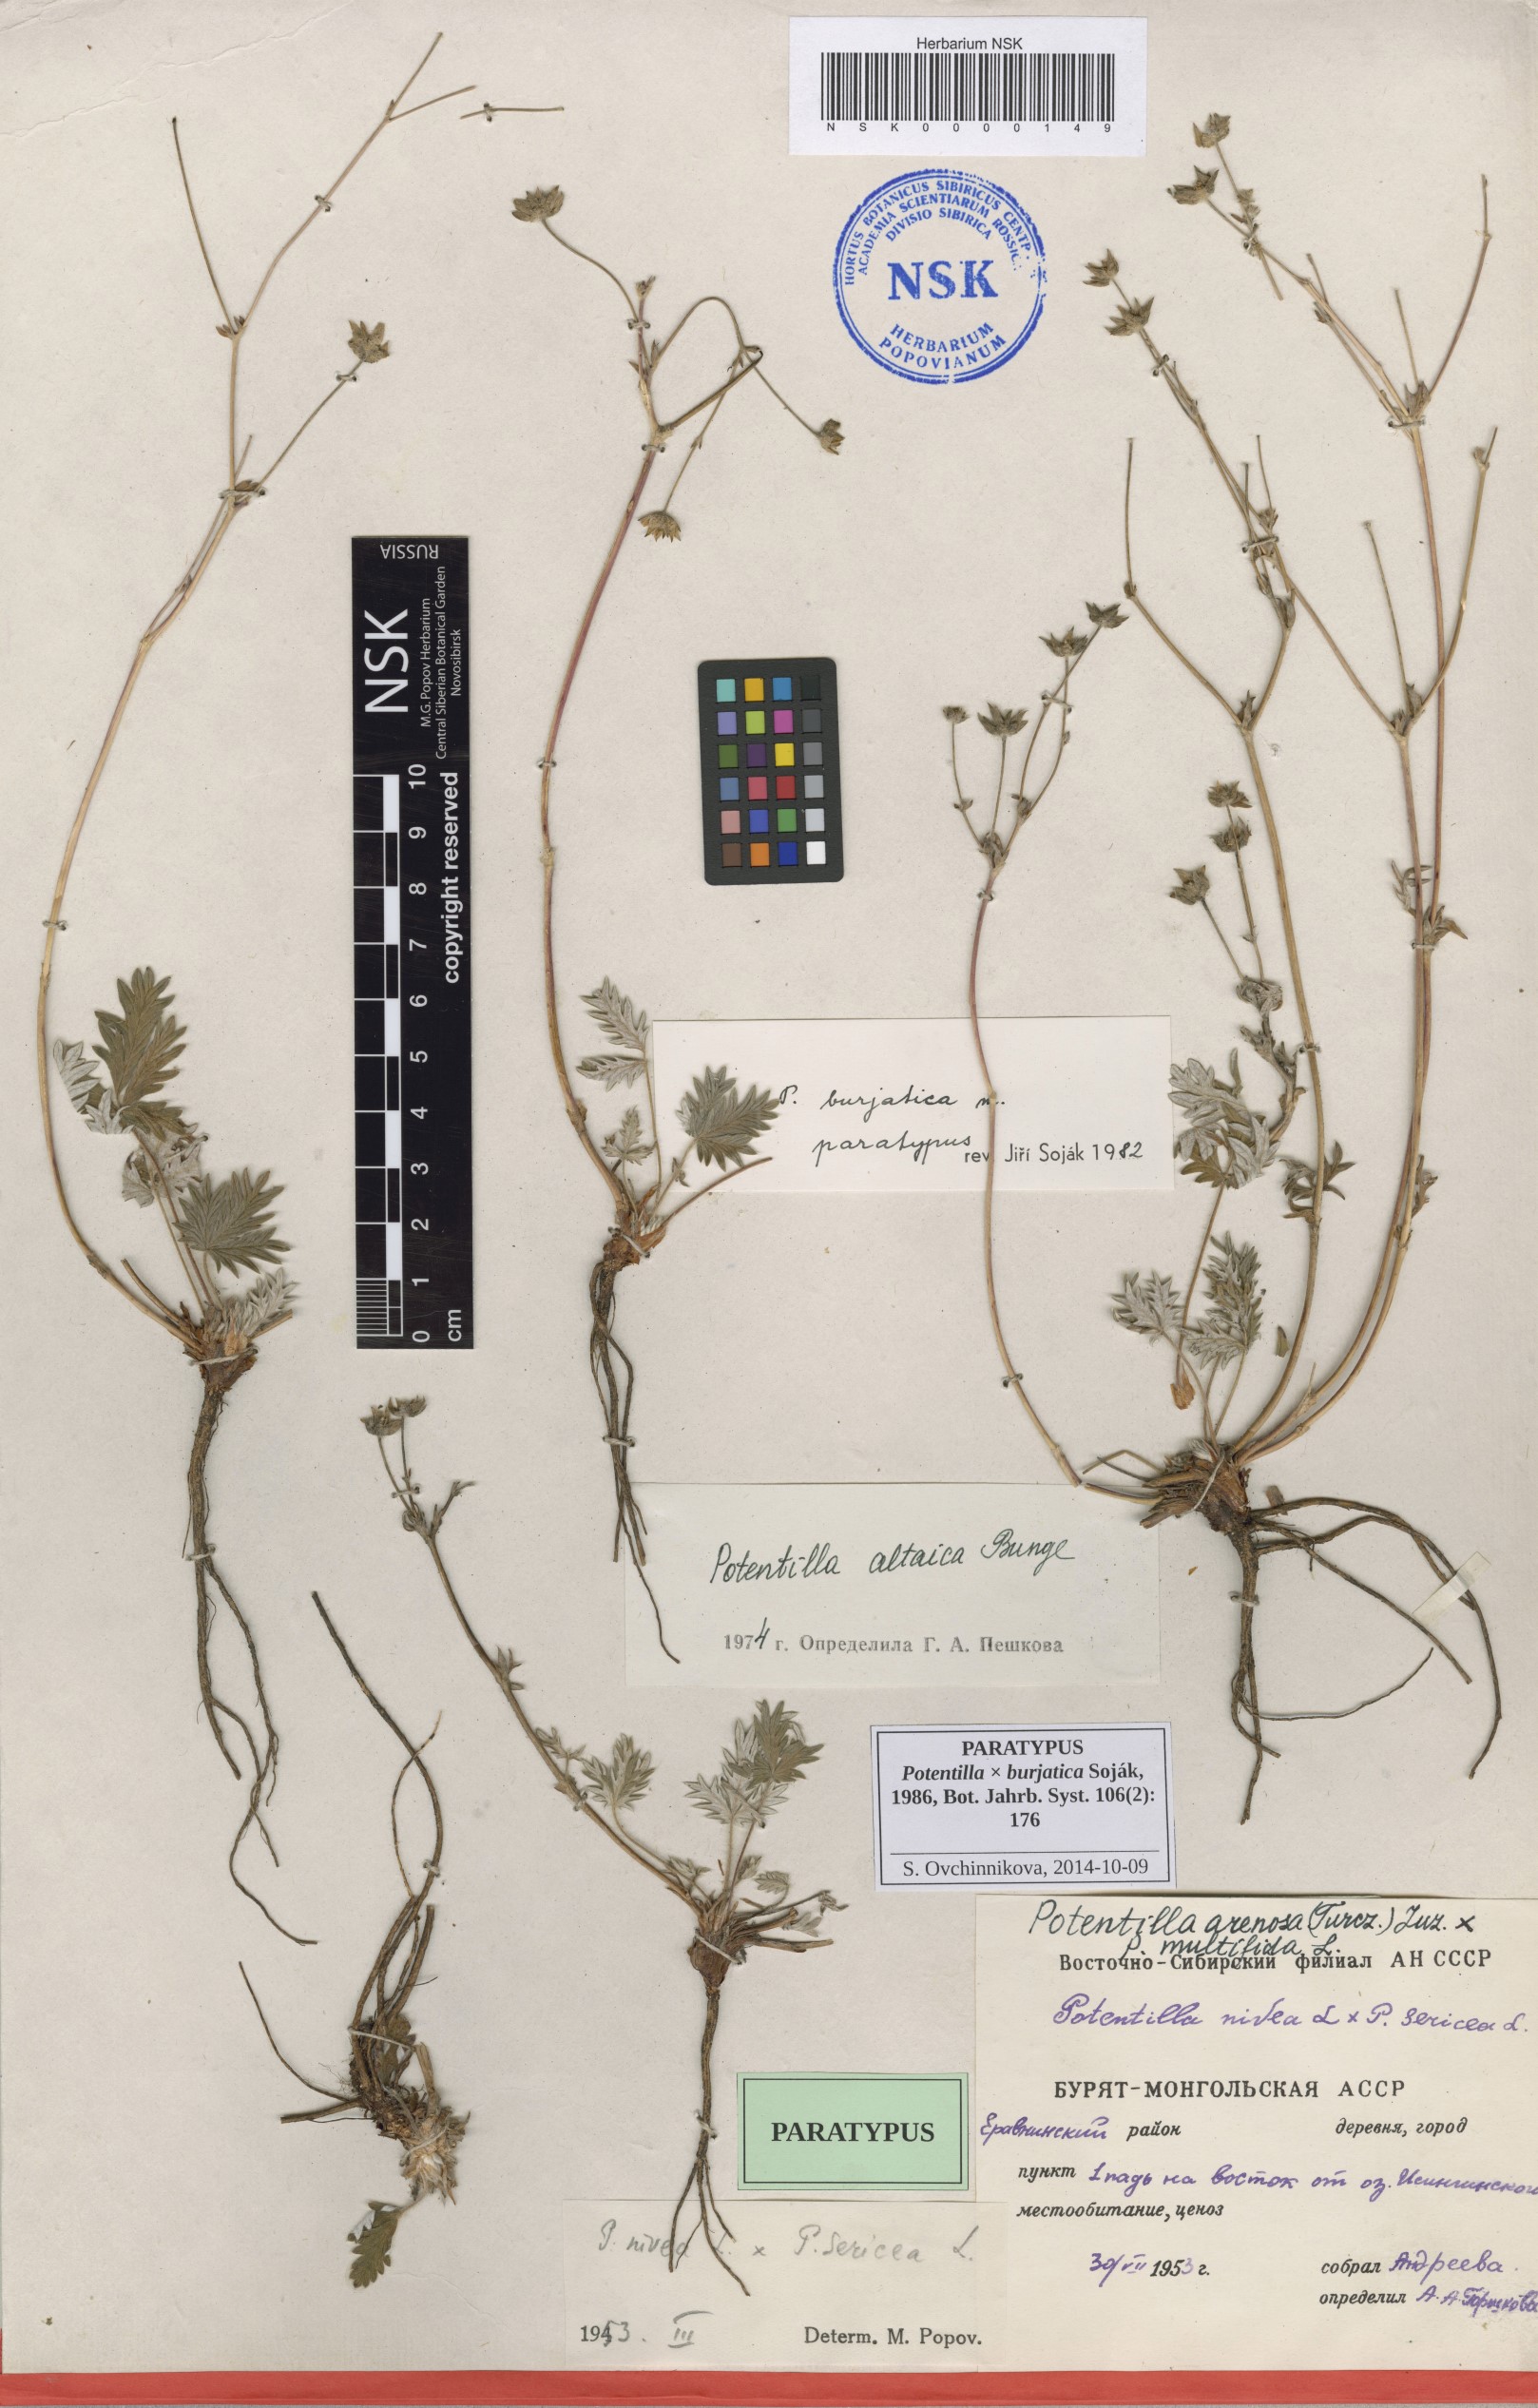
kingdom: Plantae
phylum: Tracheophyta
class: Magnoliopsida
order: Rosales
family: Rosaceae
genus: Potentilla
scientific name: Potentilla burjatica
